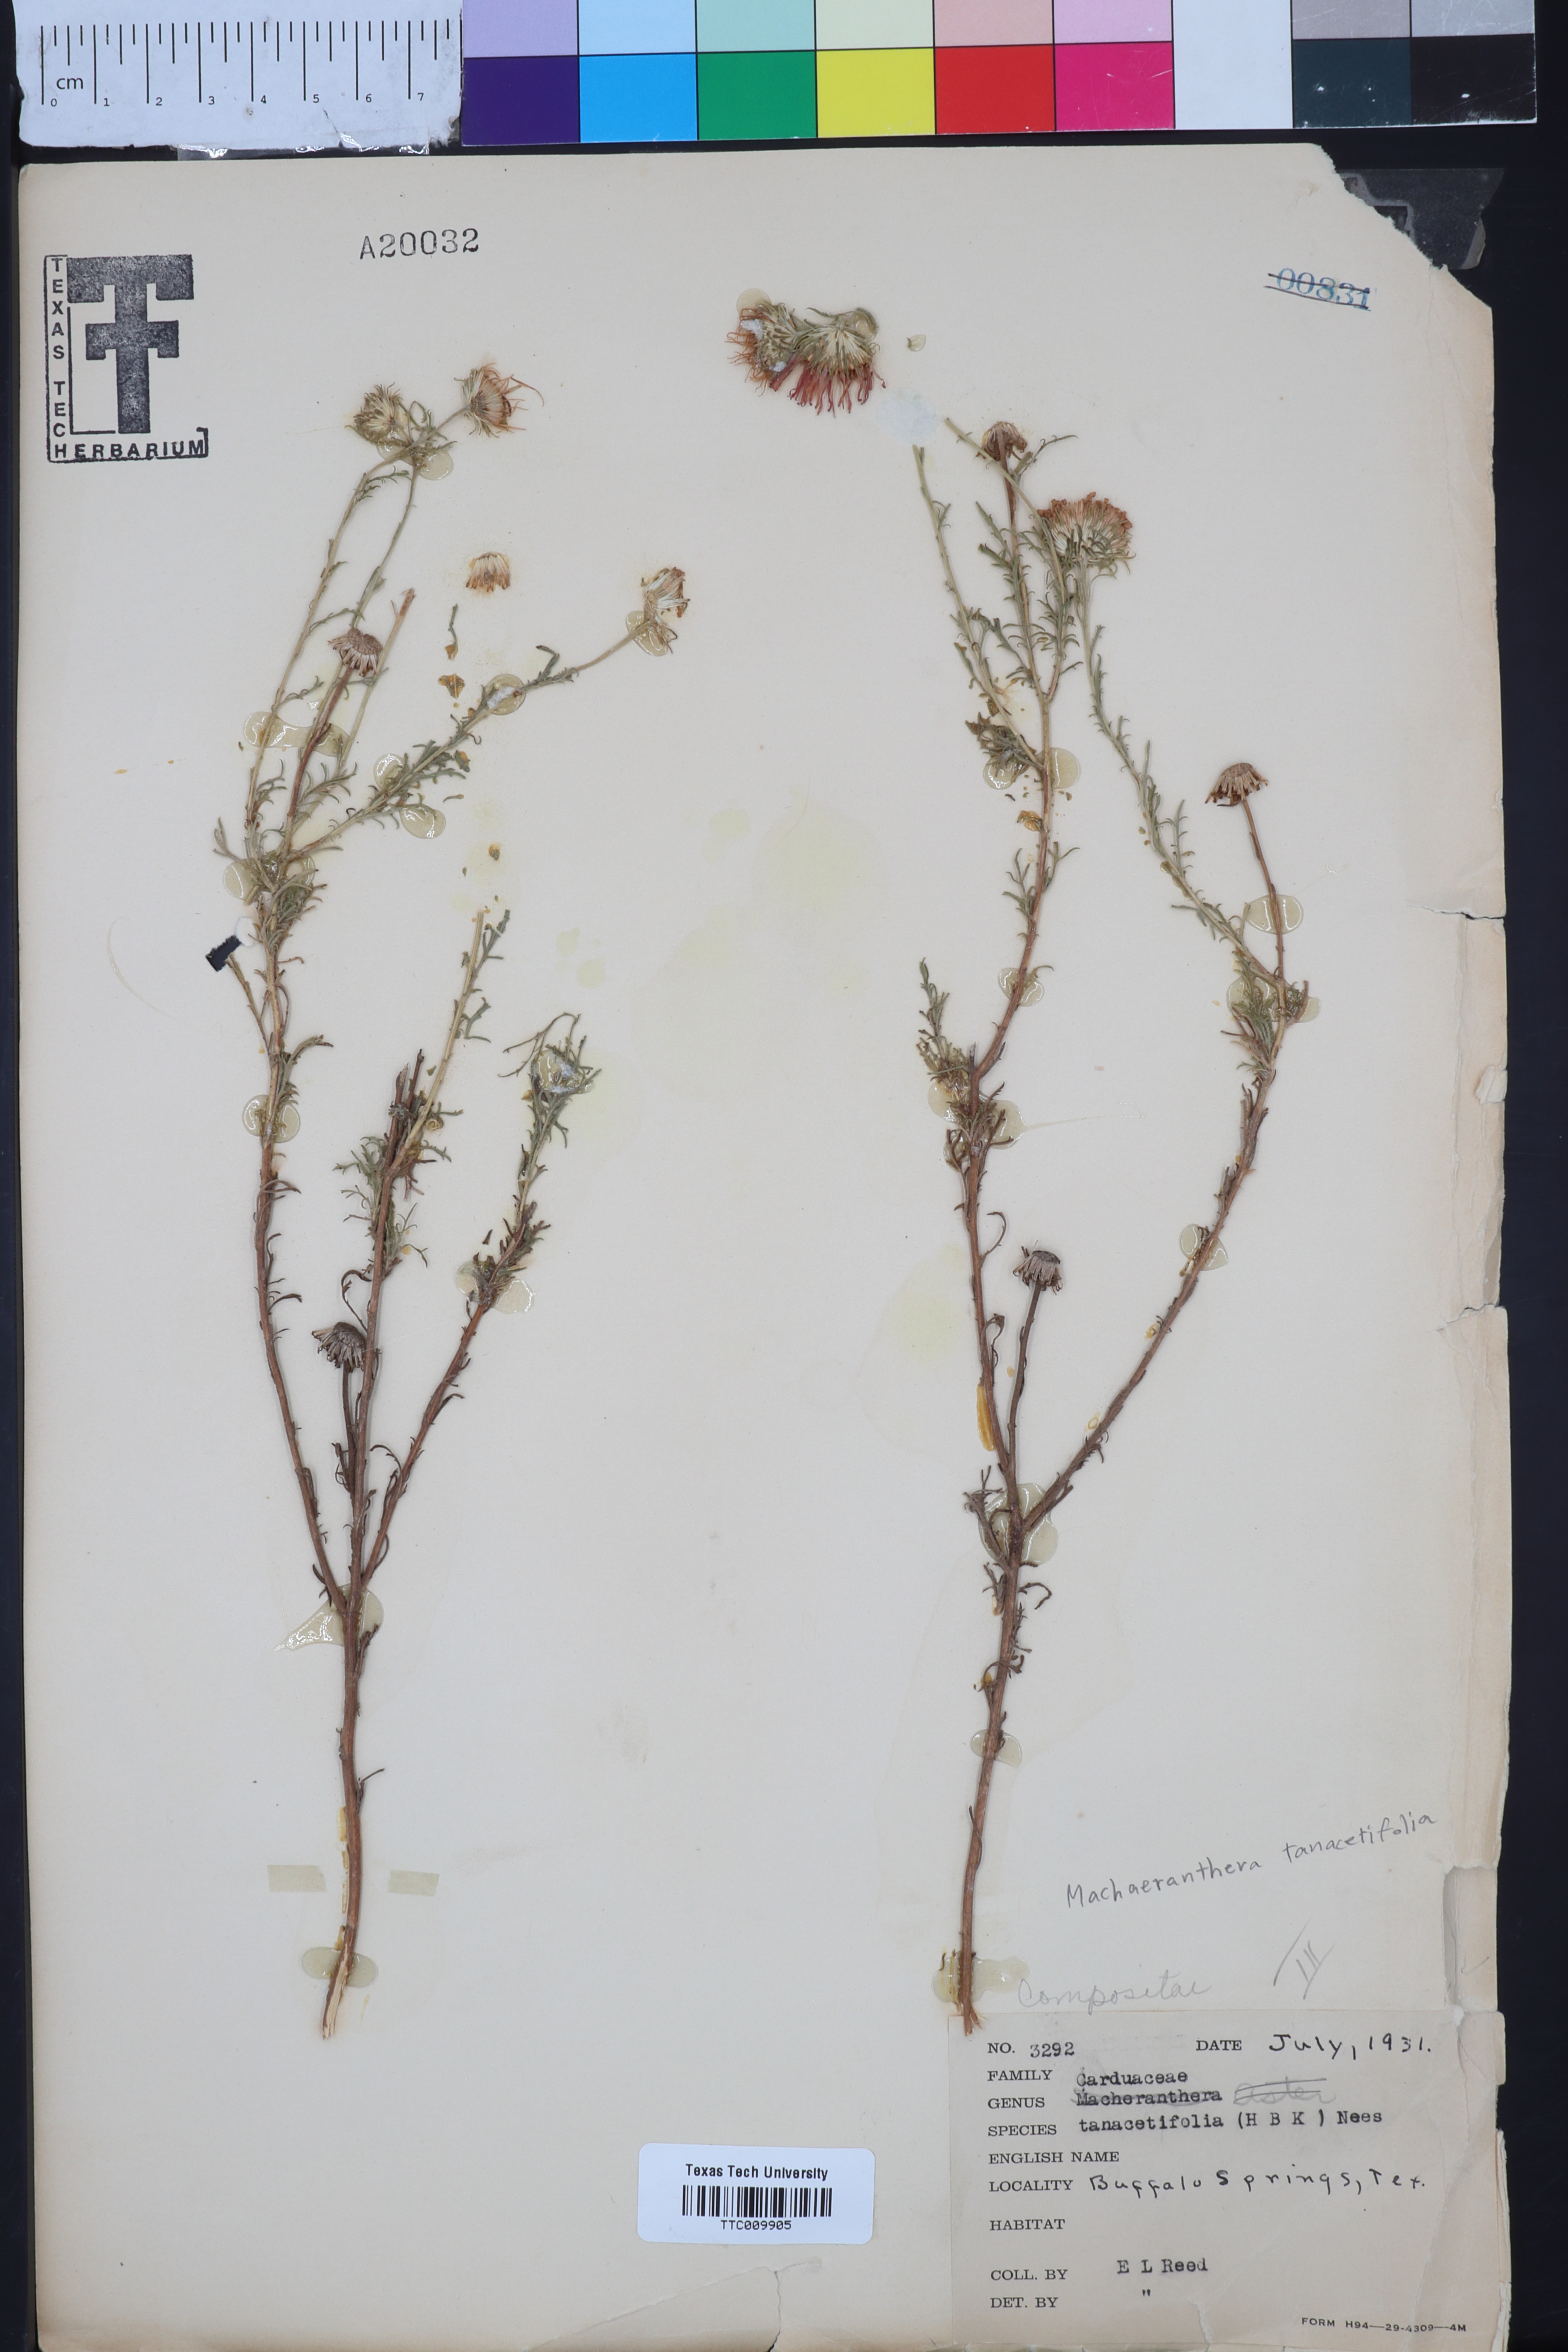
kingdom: Plantae
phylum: Tracheophyta
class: Magnoliopsida
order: Asterales
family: Asteraceae
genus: Machaeranthera
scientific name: Machaeranthera tanacetifolia
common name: Tansy-aster
